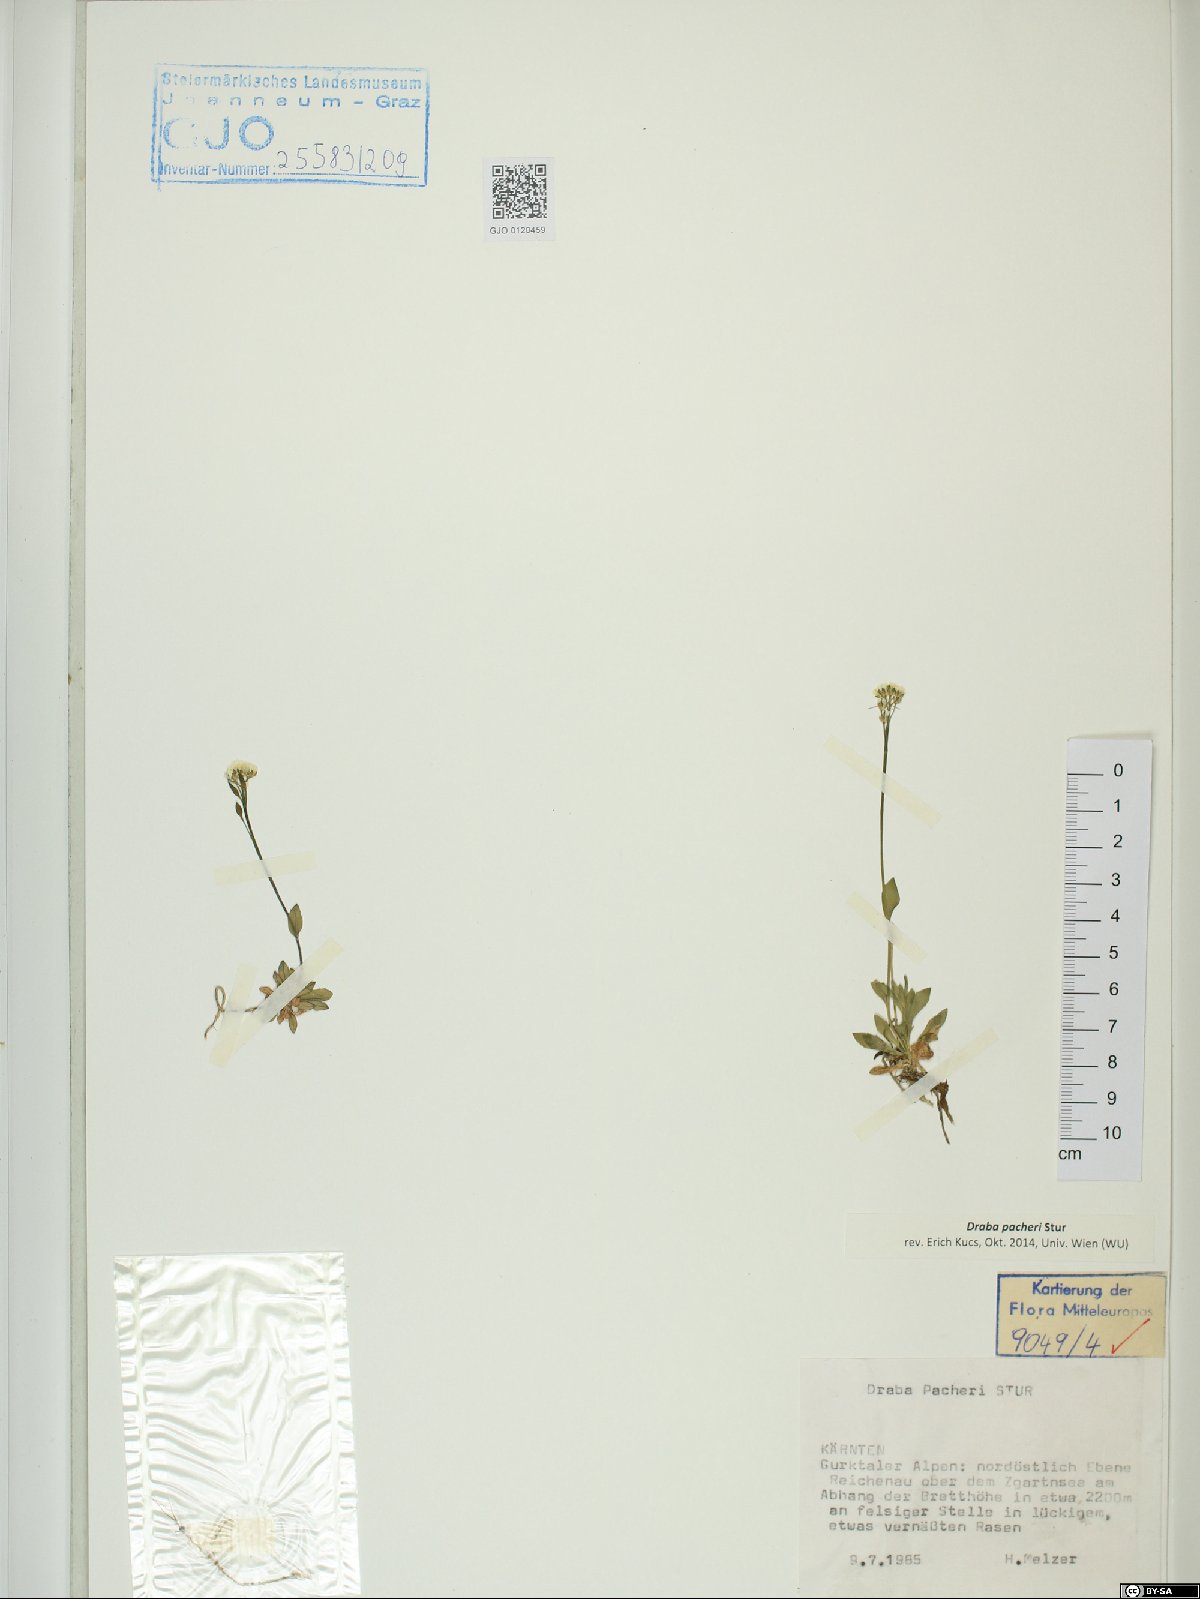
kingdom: Plantae
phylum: Tracheophyta
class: Magnoliopsida
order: Brassicales
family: Brassicaceae
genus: Draba
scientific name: Draba pacheri
